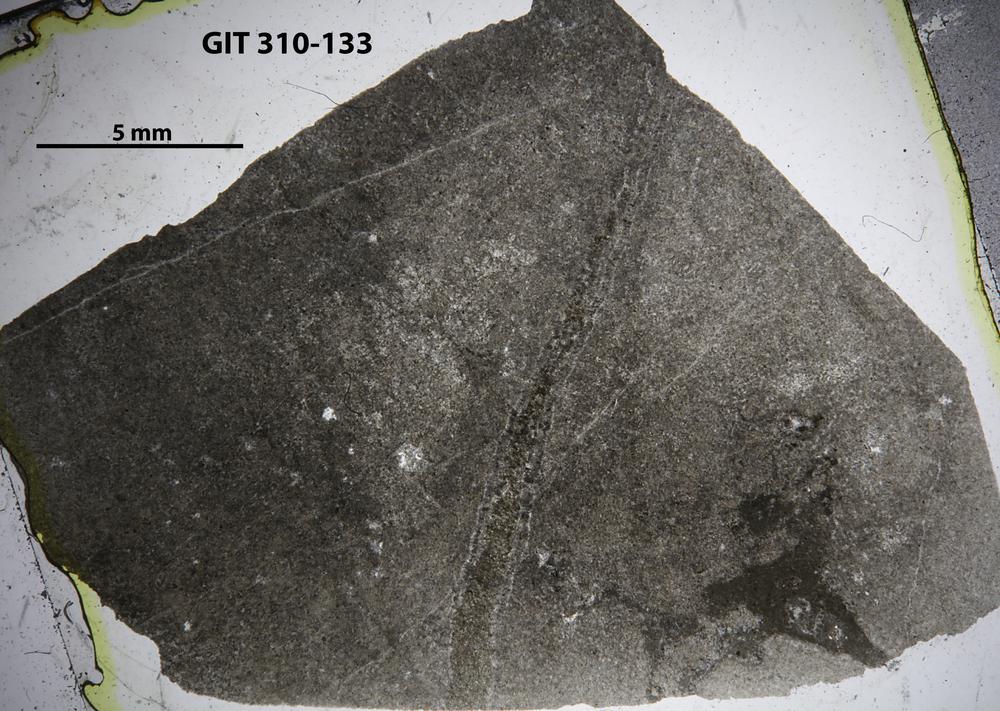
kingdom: Animalia
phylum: Porifera
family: Stylostromatidae
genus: Pachystylostroma
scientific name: Pachystylostroma
